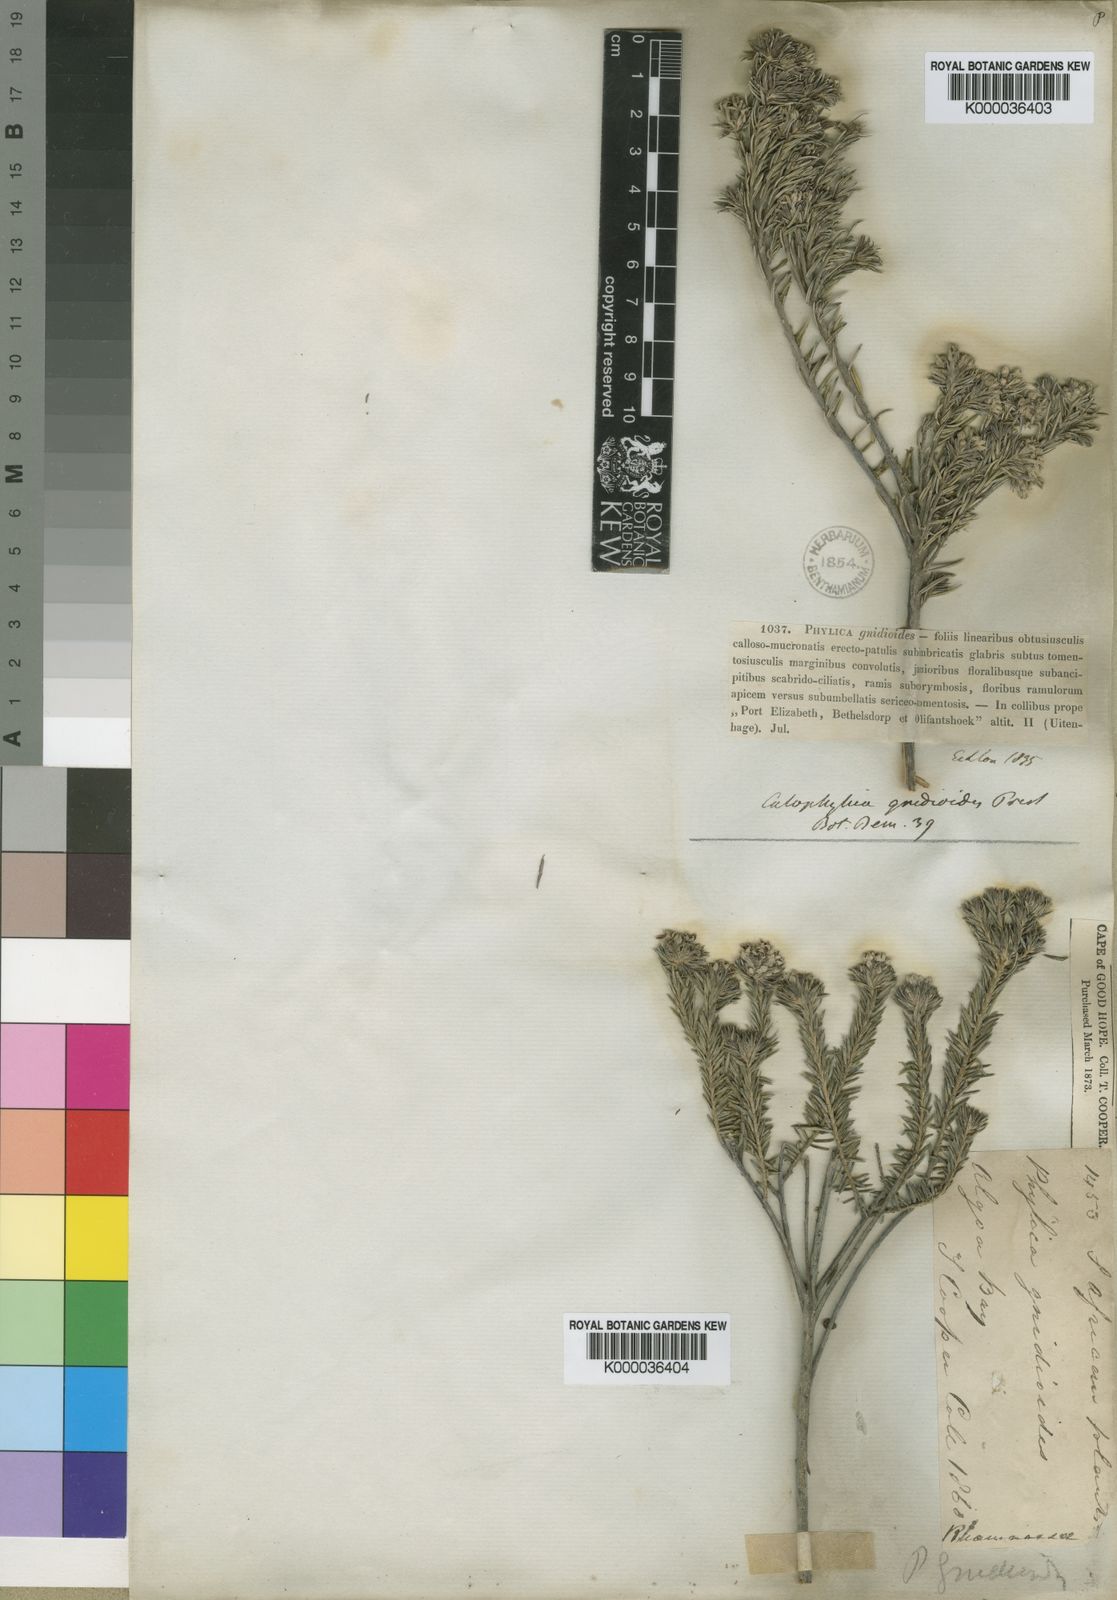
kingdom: Plantae
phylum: Tracheophyta
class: Magnoliopsida
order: Rosales
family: Rhamnaceae
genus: Phylica
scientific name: Phylica gnidioides
